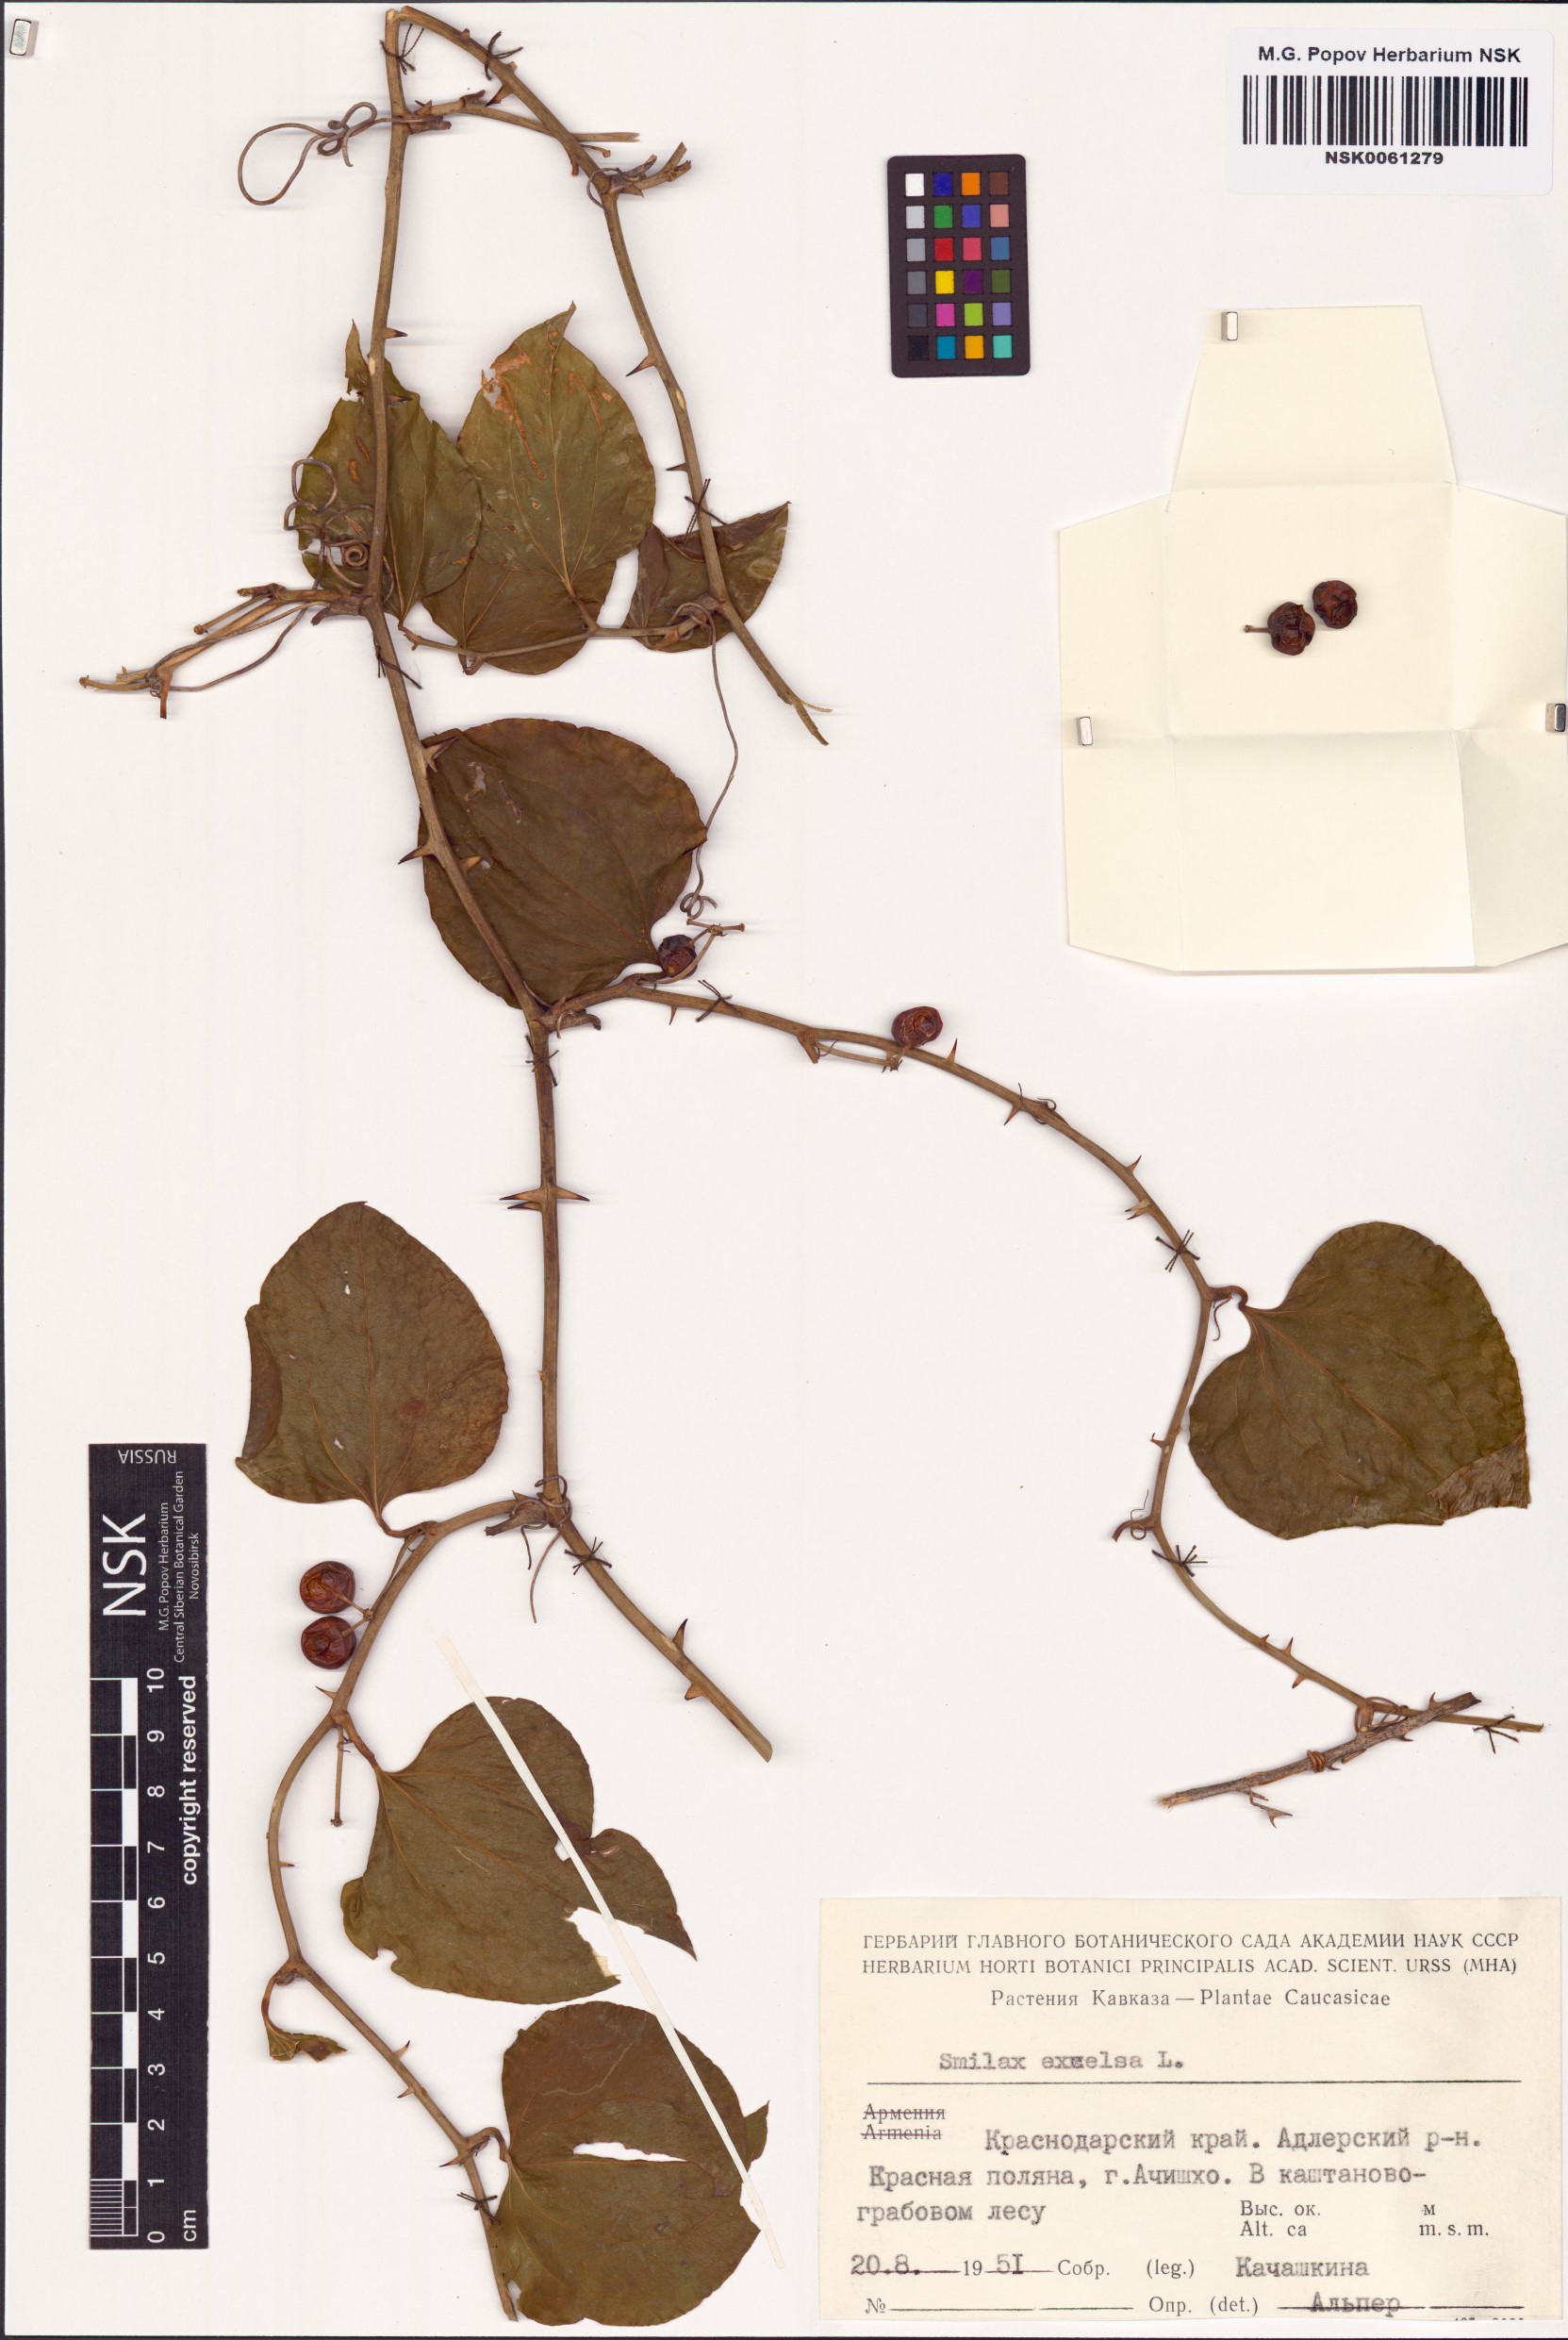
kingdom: Plantae
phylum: Tracheophyta
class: Liliopsida
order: Liliales
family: Smilacaceae
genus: Smilax
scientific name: Smilax excelsa
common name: Larger smilax
